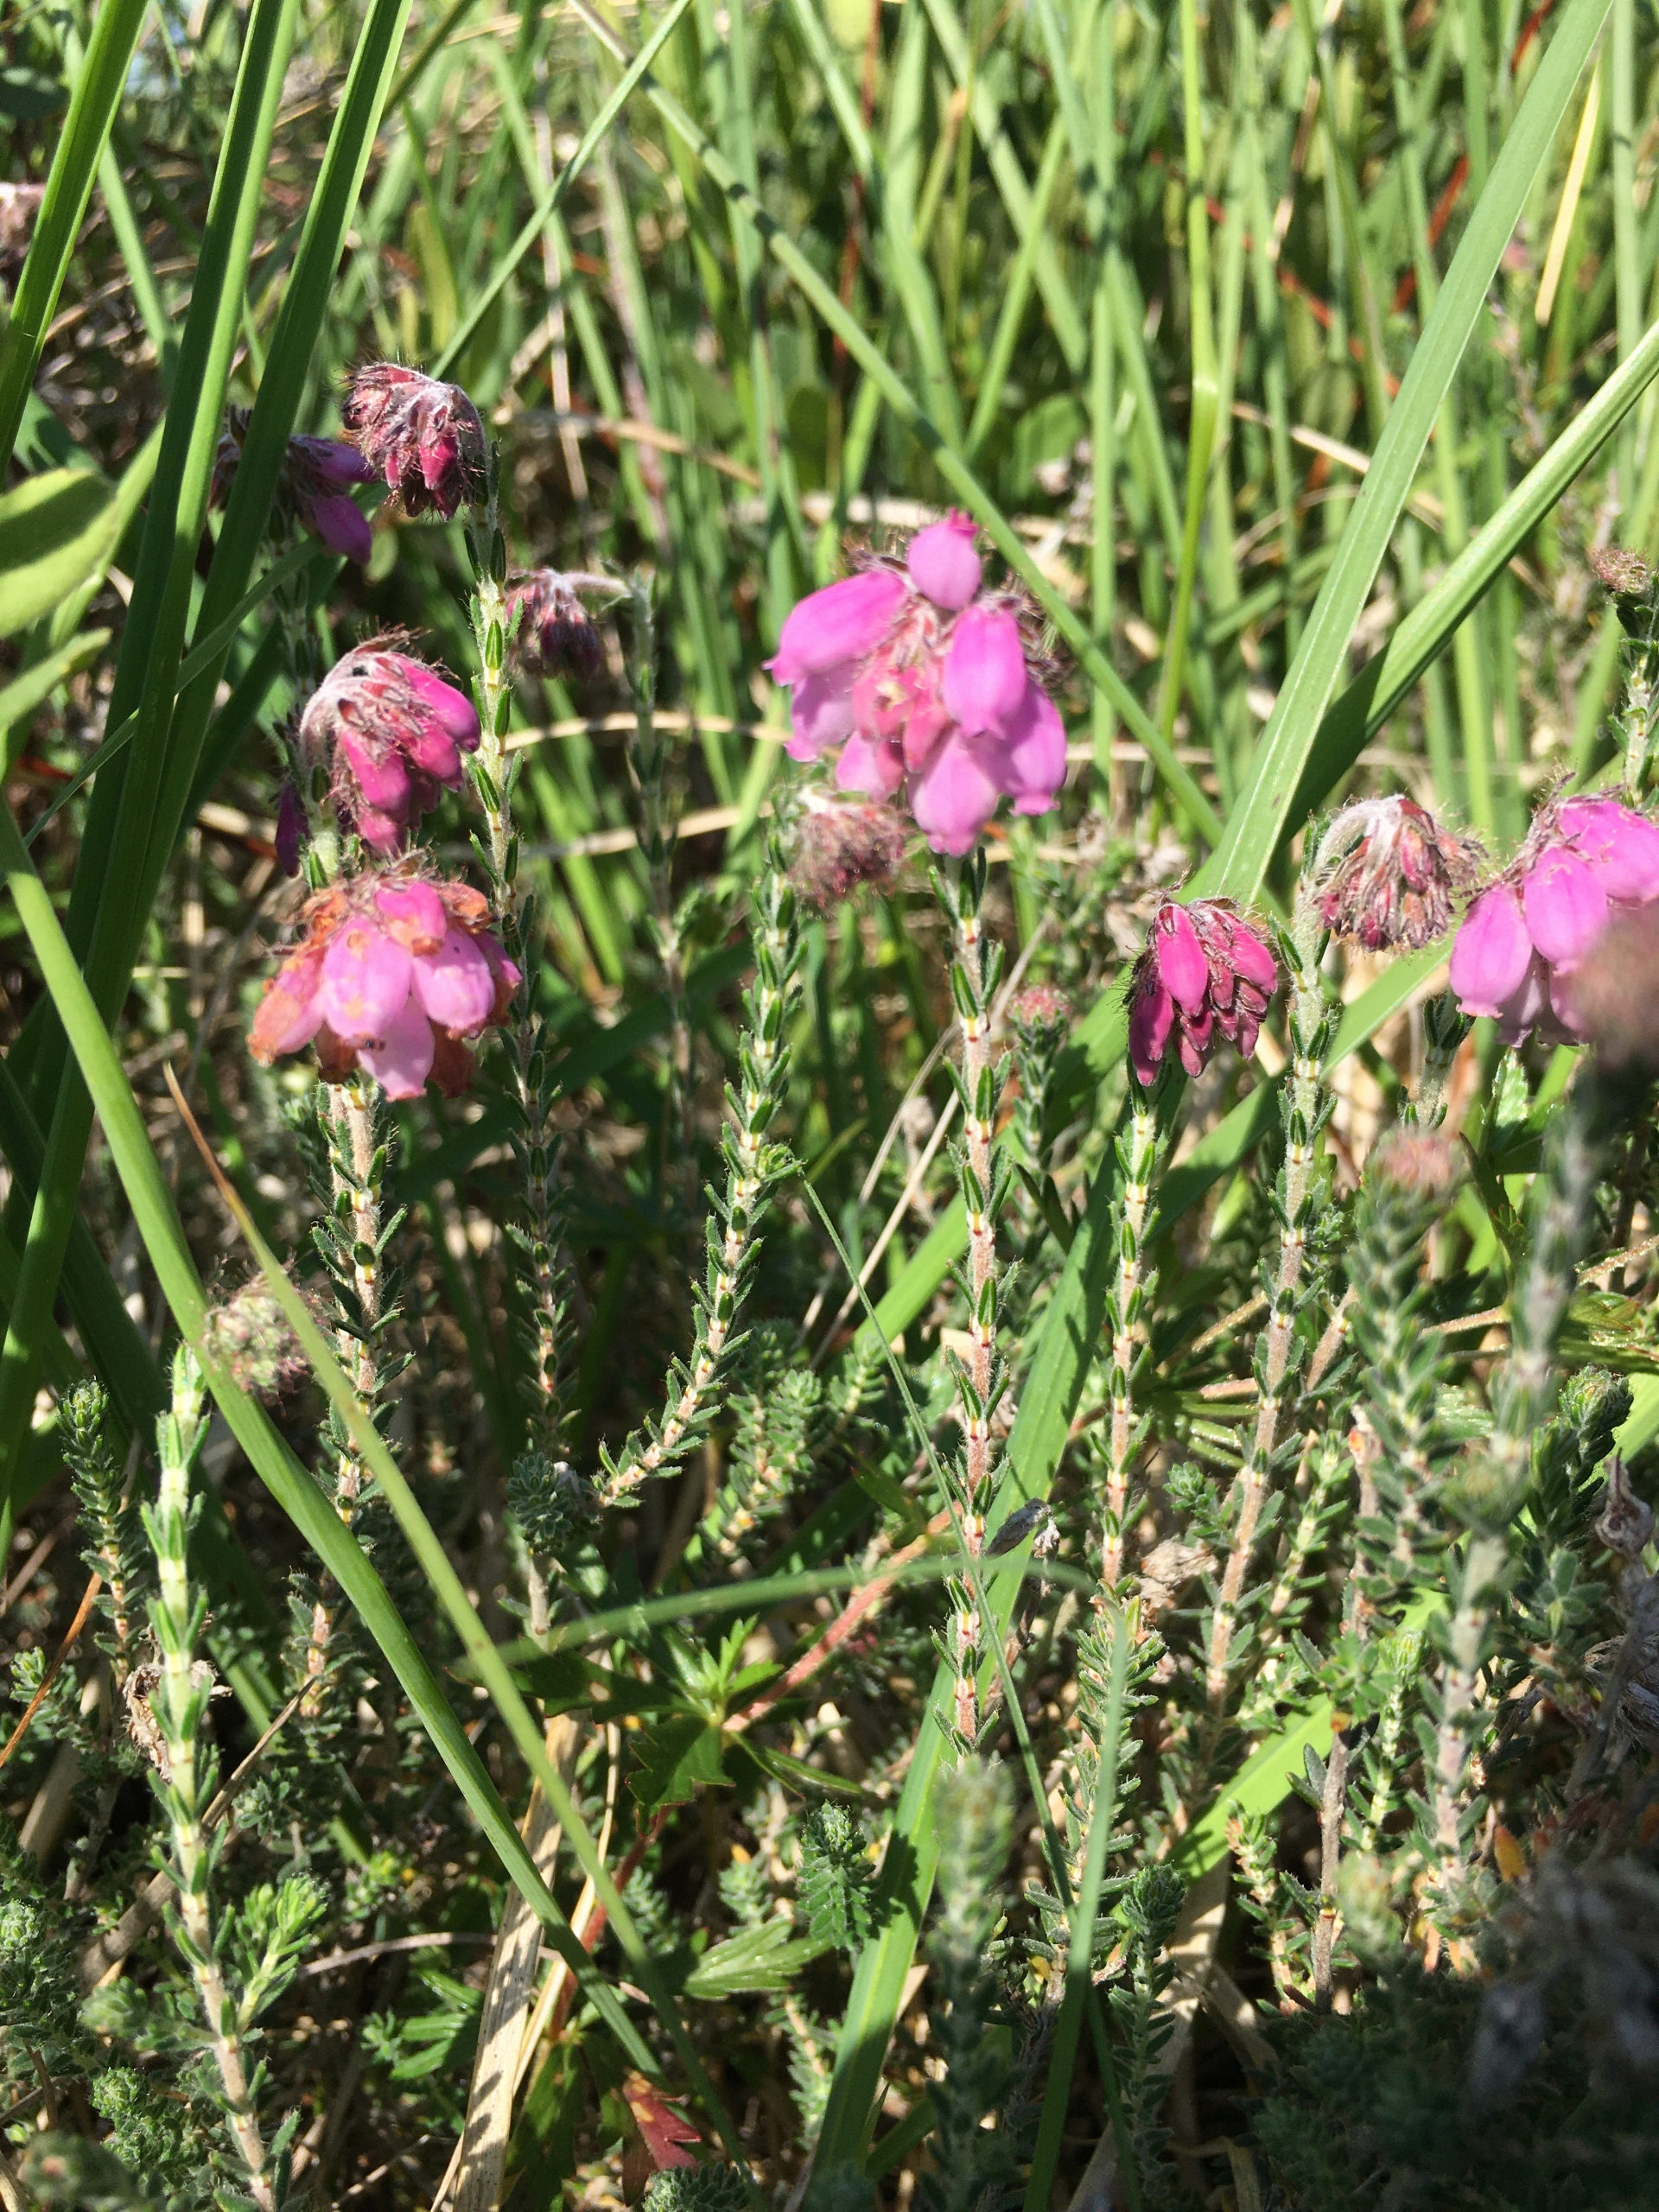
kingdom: Plantae
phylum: Tracheophyta
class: Magnoliopsida
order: Ericales
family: Ericaceae
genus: Erica
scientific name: Erica tetralix
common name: Klokkelyng
